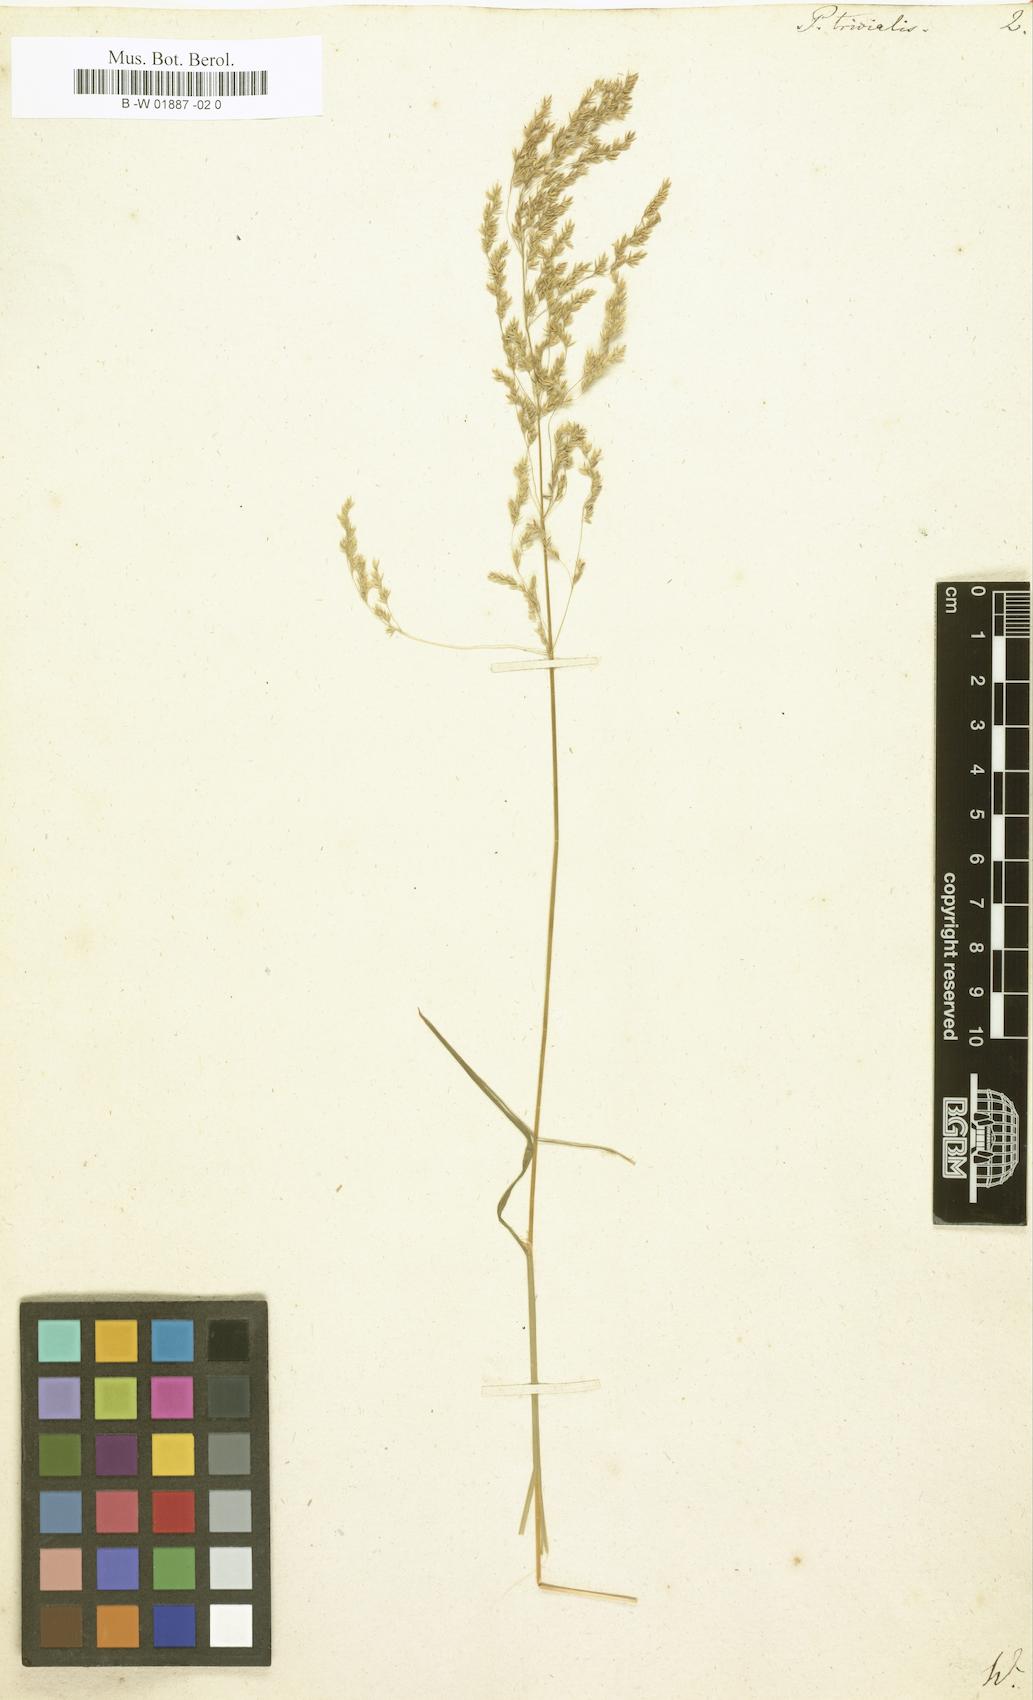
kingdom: Plantae
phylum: Tracheophyta
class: Liliopsida
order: Poales
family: Poaceae
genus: Poa
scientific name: Poa trivialis
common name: Rough bluegrass
